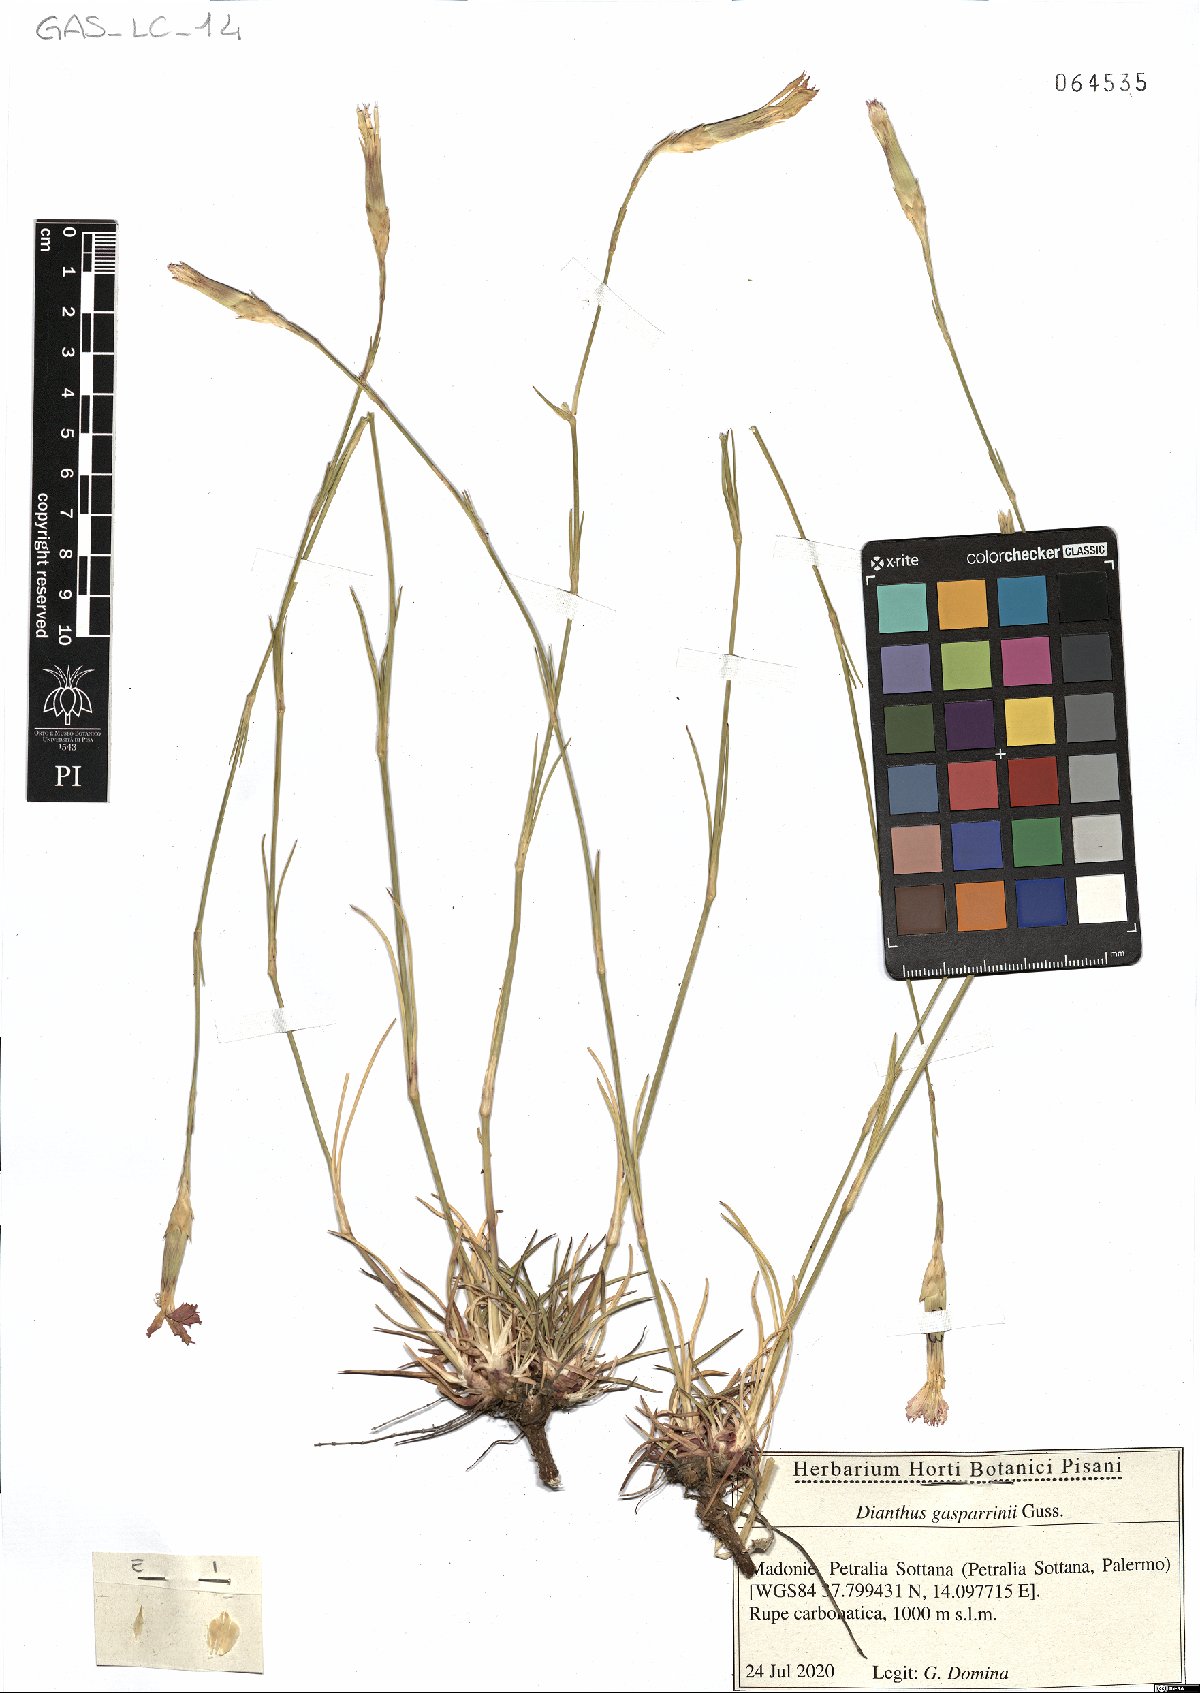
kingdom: Plantae
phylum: Tracheophyta
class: Magnoliopsida
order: Caryophyllales
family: Caryophyllaceae
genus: Dianthus
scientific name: Dianthus gasparrinii
